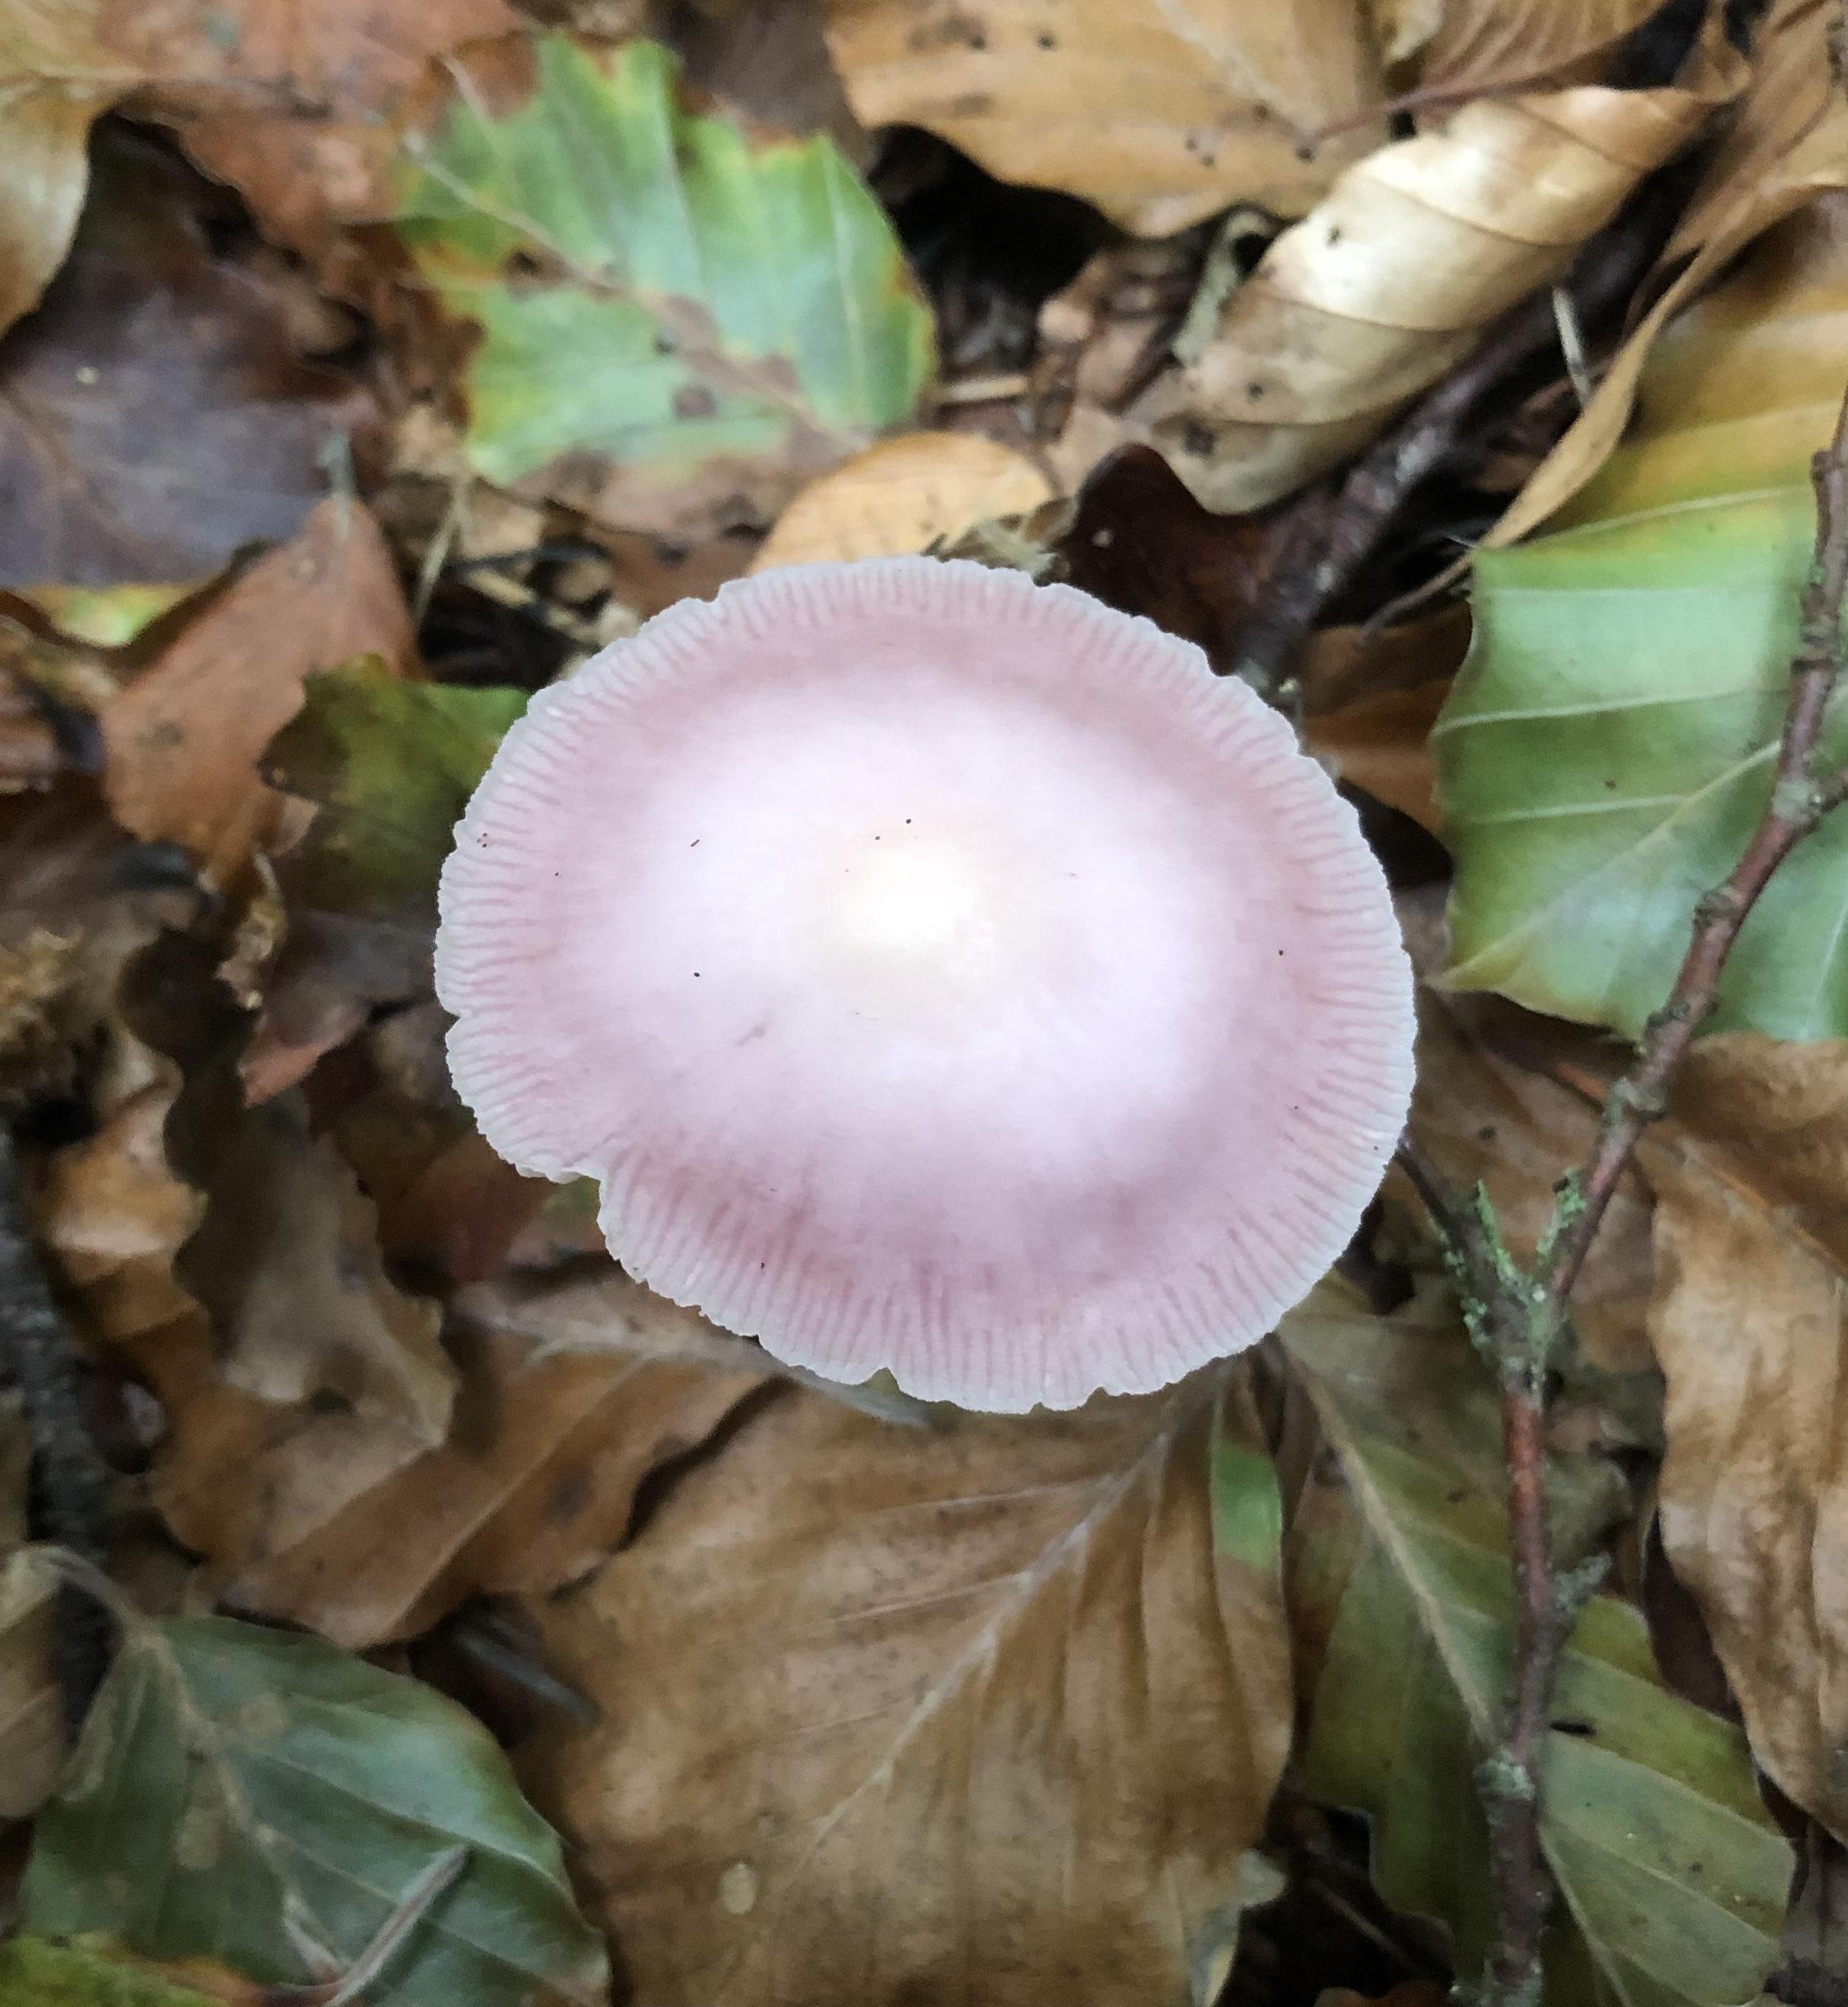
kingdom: Fungi
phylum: Basidiomycota
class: Agaricomycetes
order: Agaricales
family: Mycenaceae
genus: Mycena
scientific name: Mycena rosea
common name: rosa huesvamp
